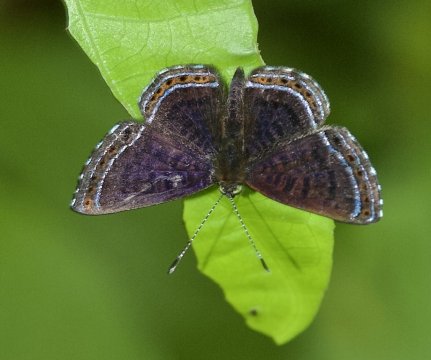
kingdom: Animalia
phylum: Arthropoda
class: Insecta
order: Lepidoptera
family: Riodinidae
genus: Detritivora
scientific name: Detritivora
